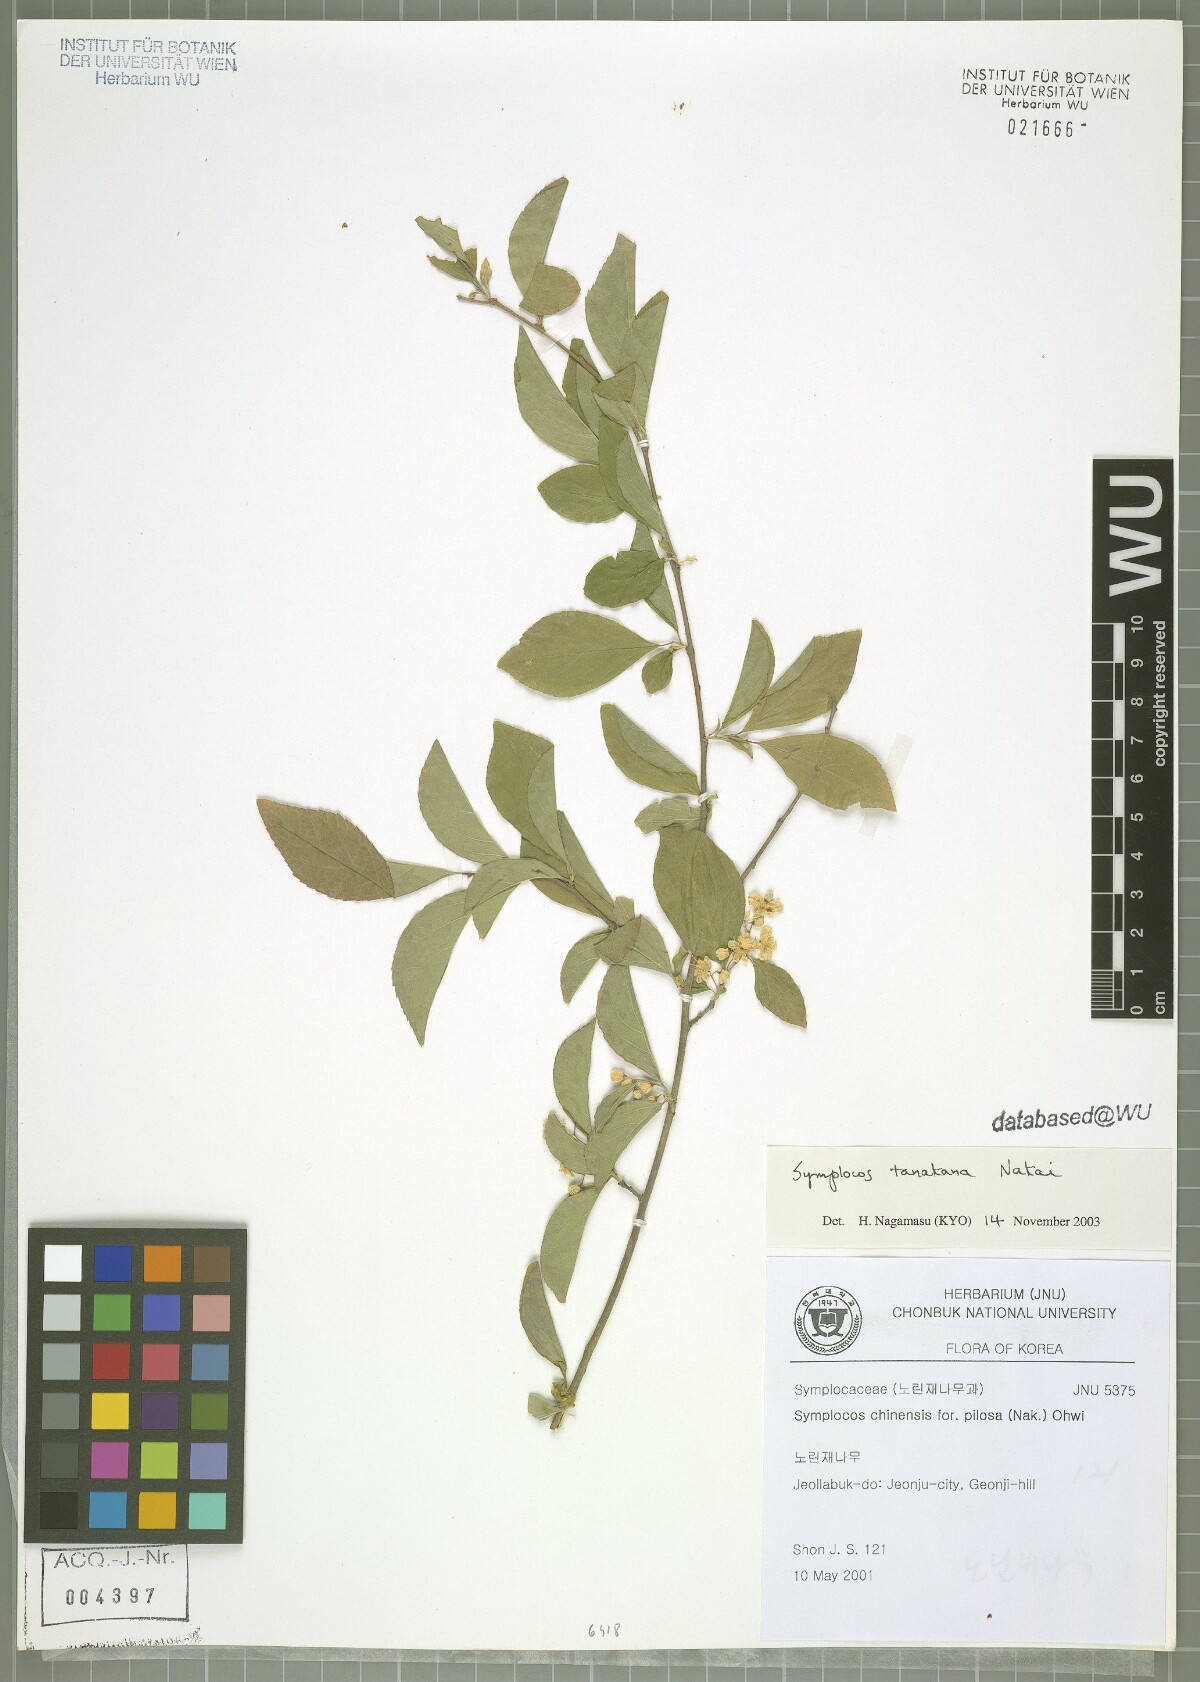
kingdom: Plantae
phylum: Tracheophyta
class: Magnoliopsida
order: Ericales
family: Symplocaceae
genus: Symplocos
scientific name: Symplocos tanakana
